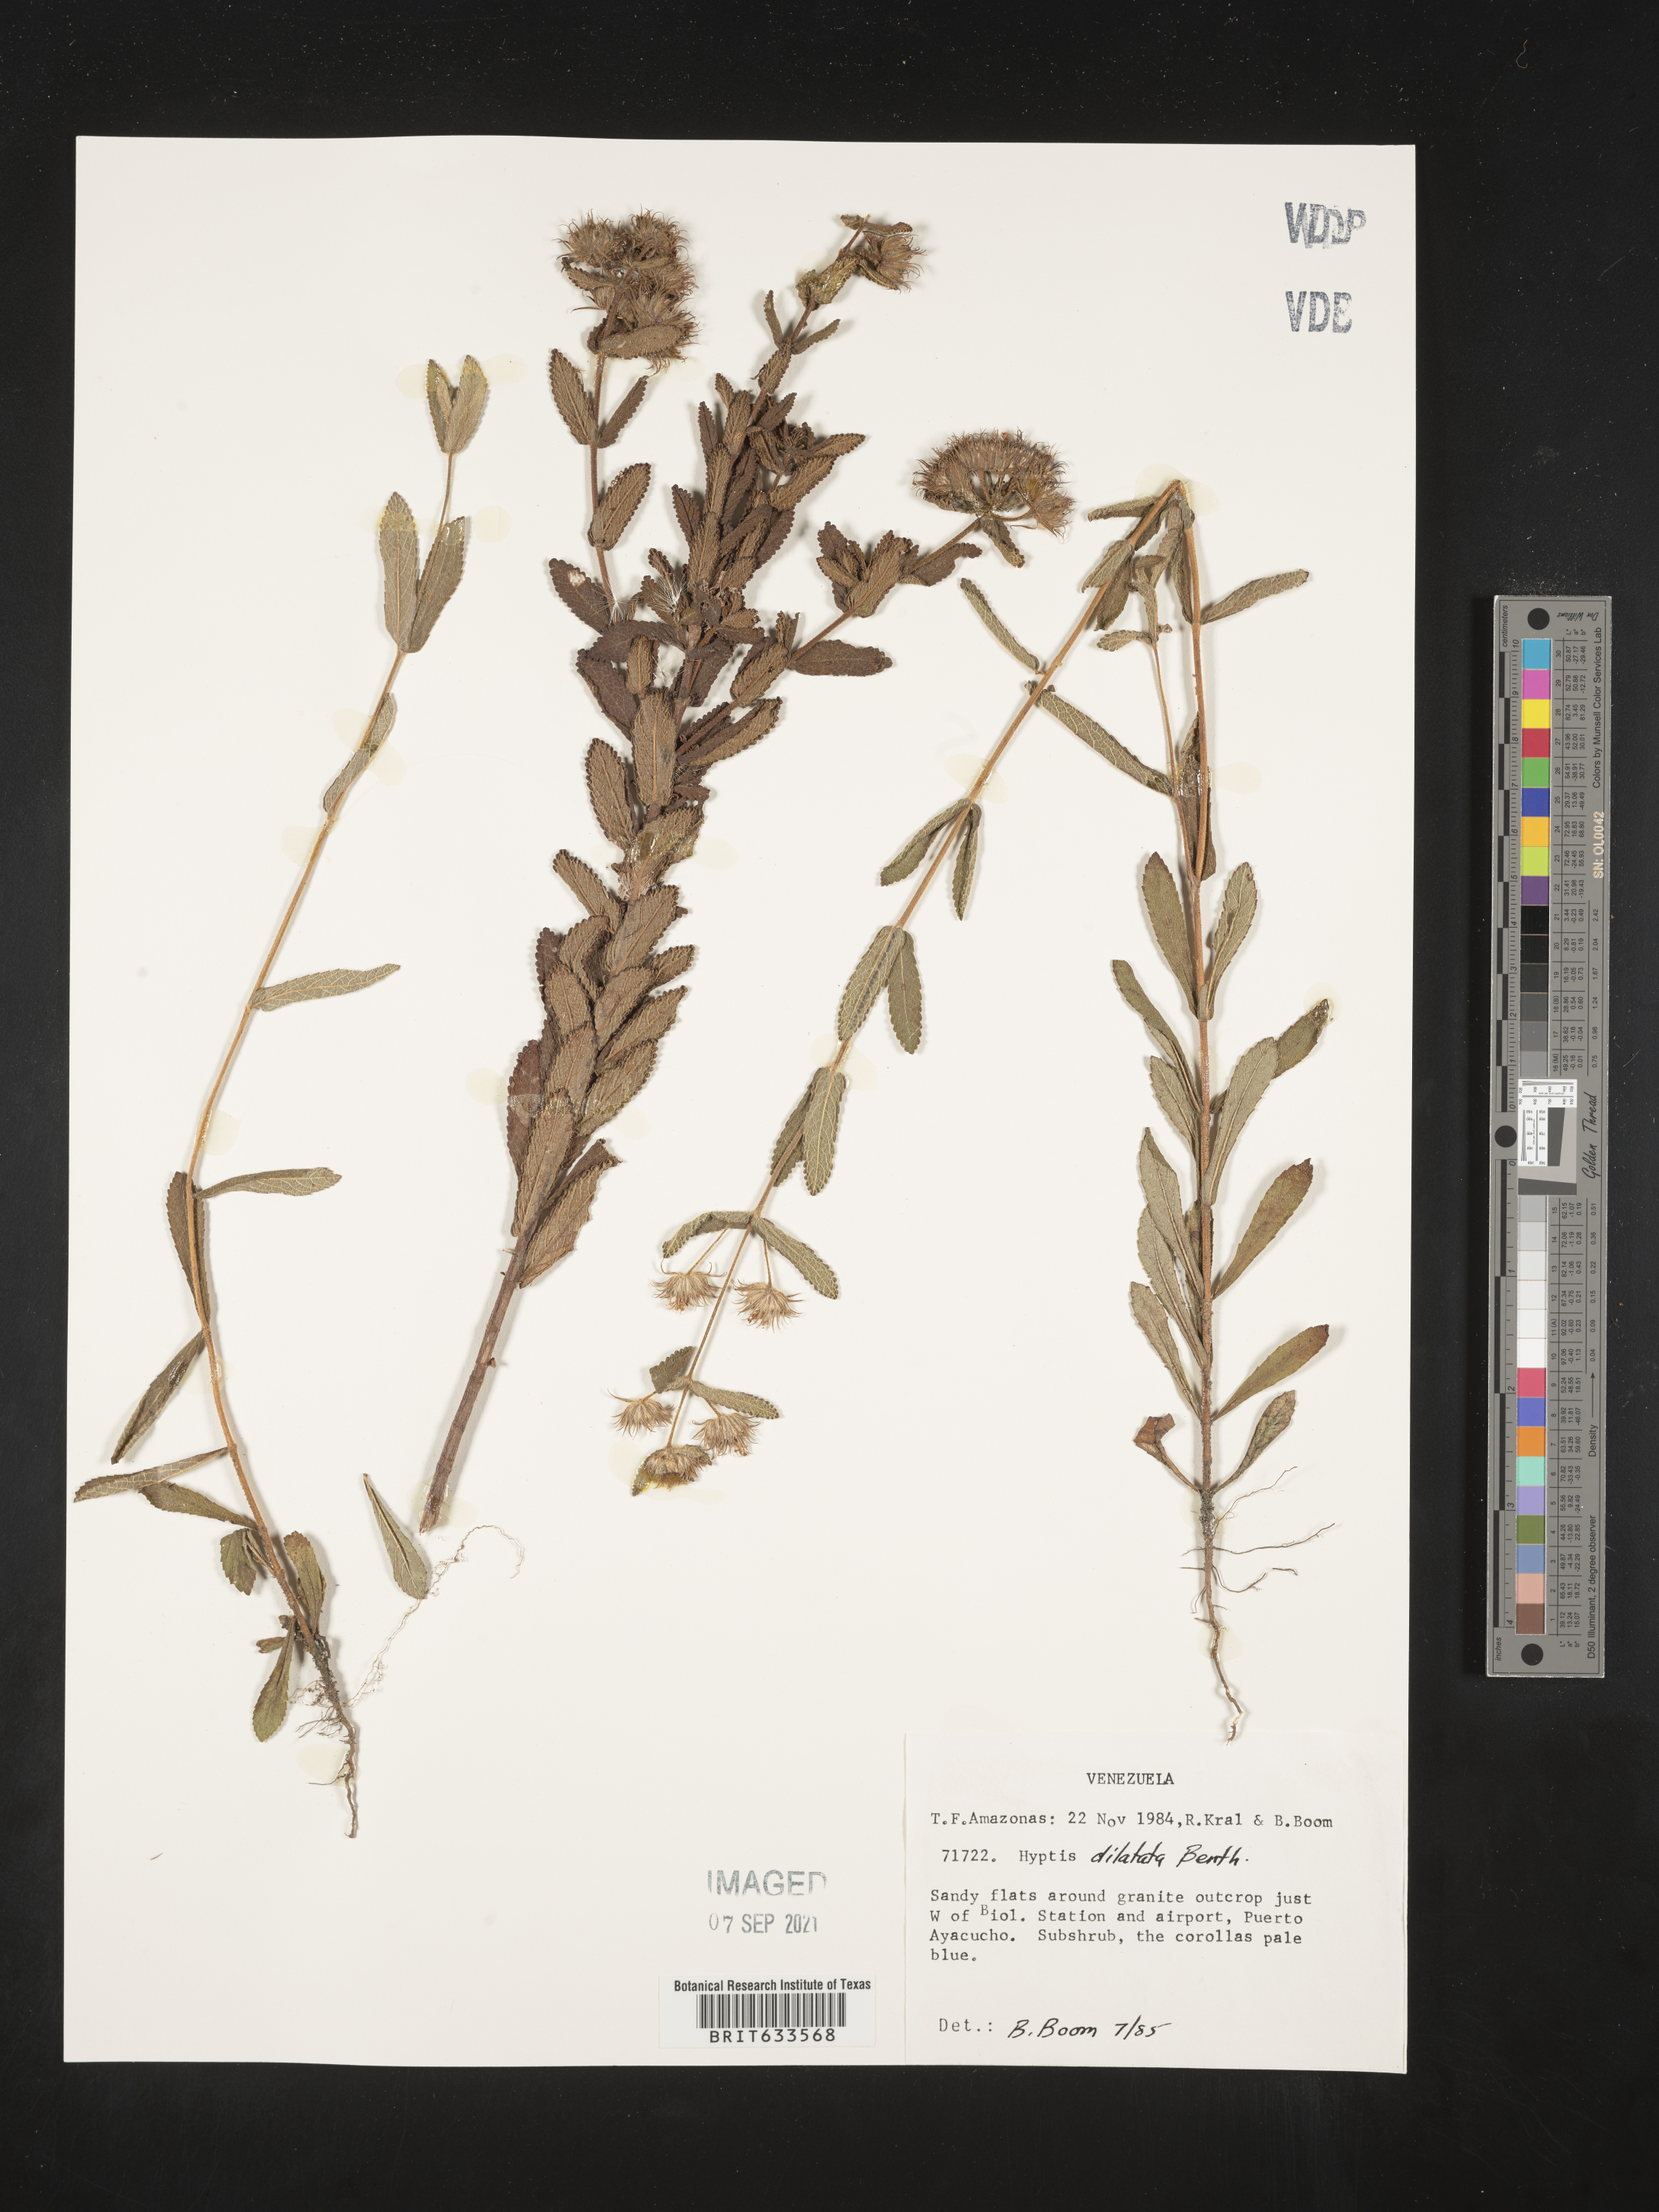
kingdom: Plantae
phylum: Tracheophyta
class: Magnoliopsida
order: Lamiales
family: Lamiaceae
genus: Hyptis
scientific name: Hyptis
